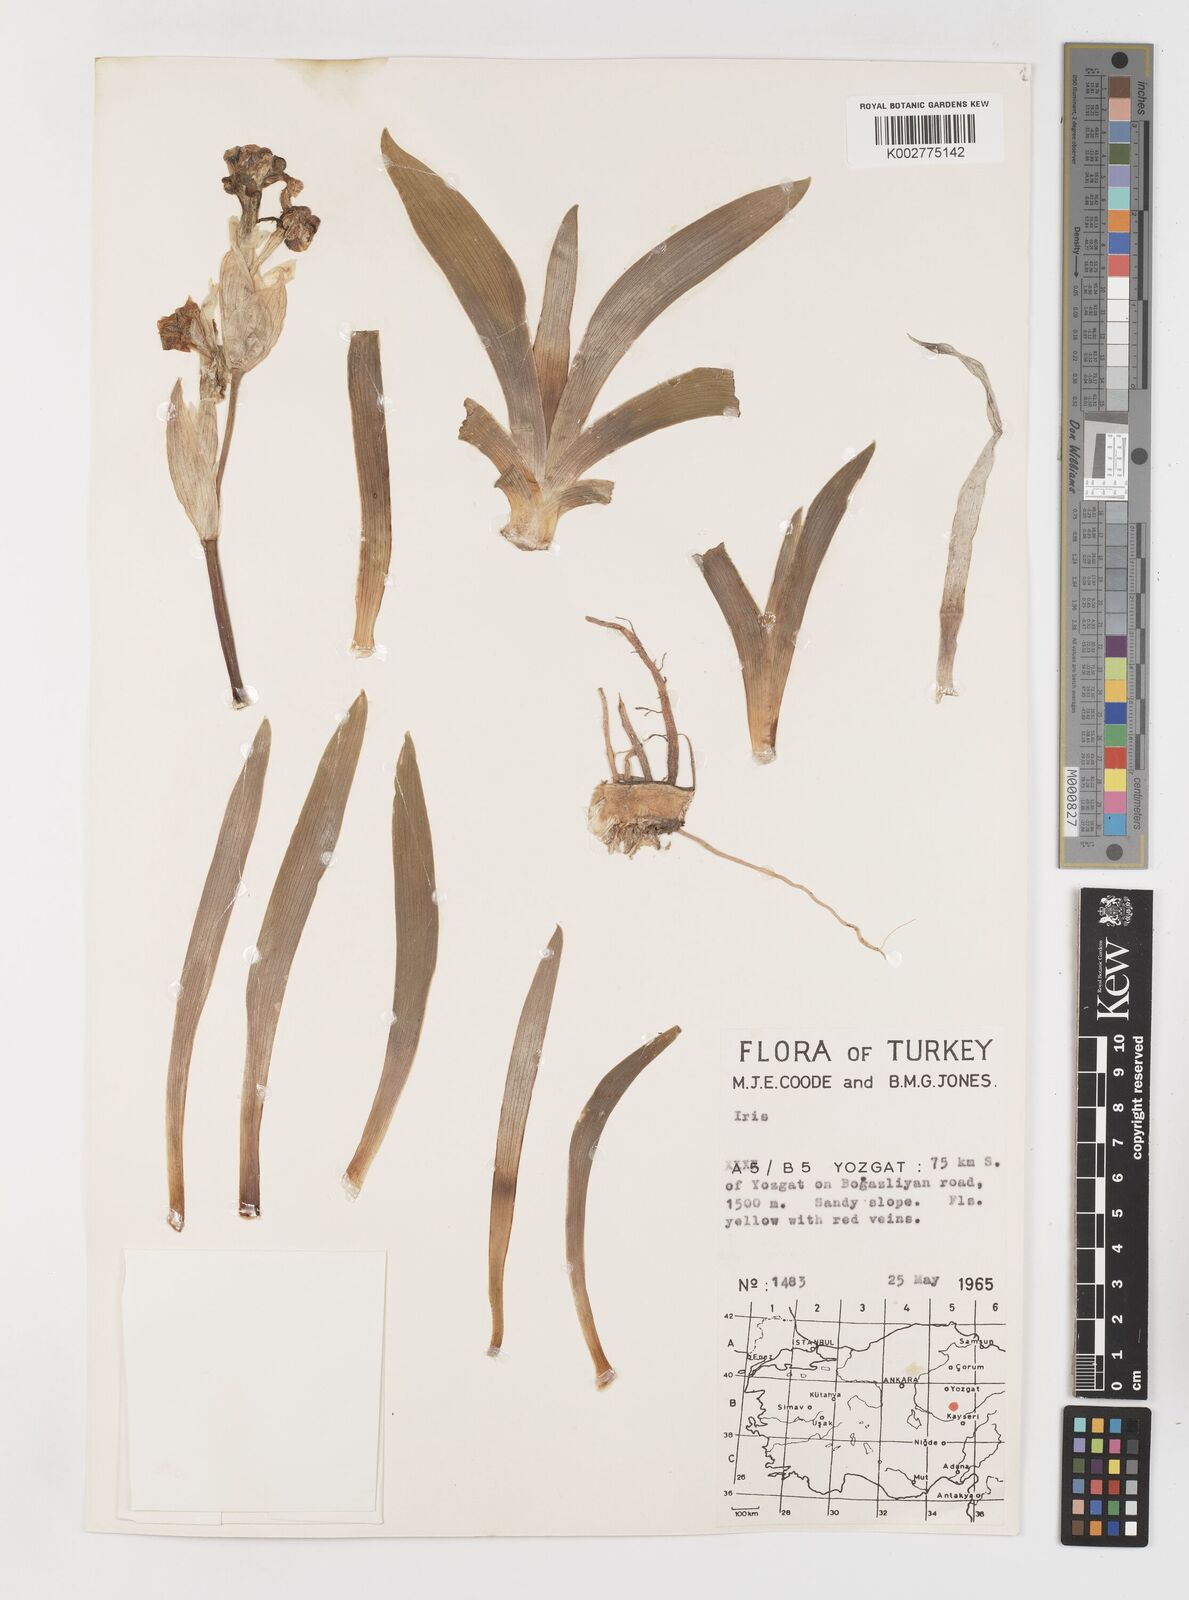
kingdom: Plantae
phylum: Tracheophyta
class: Liliopsida
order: Asparagales
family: Iridaceae
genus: Iris
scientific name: Iris schachtii
